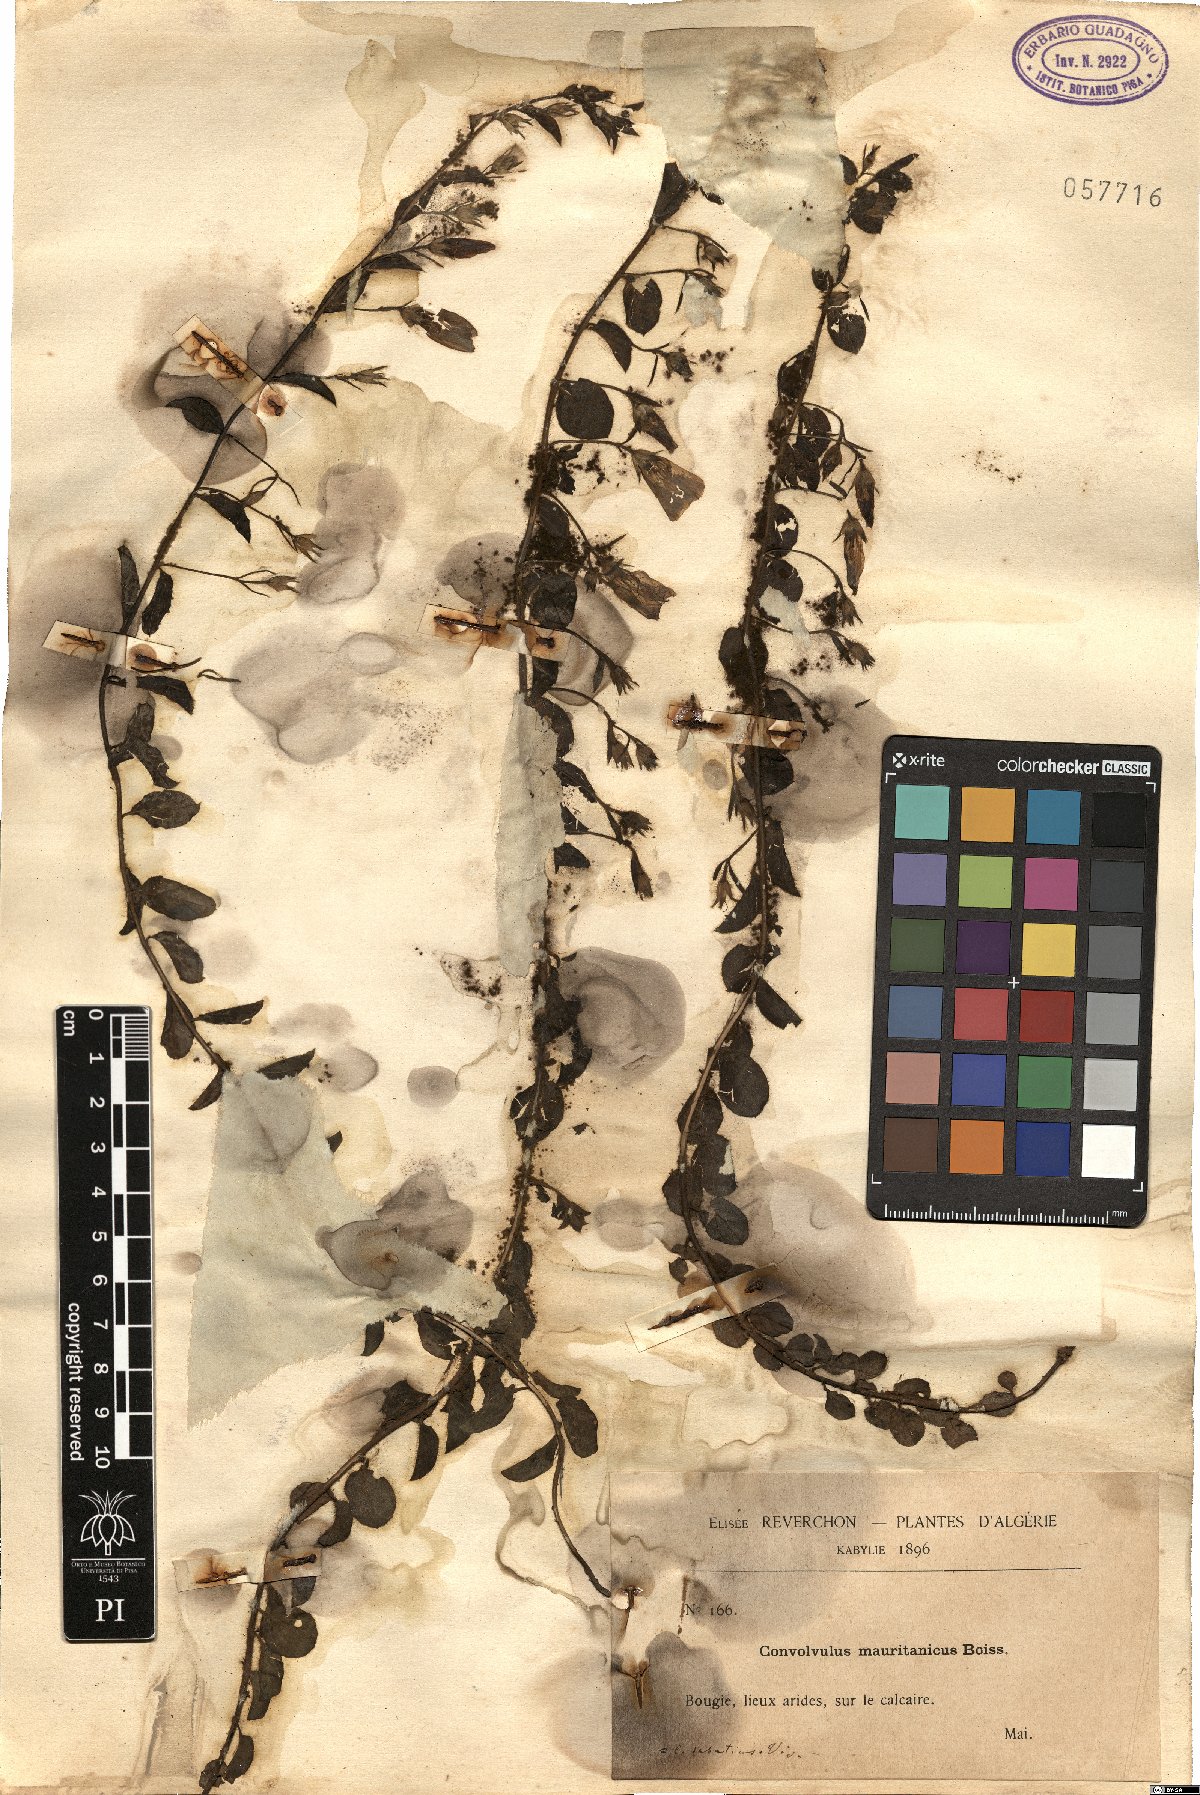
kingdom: Plantae
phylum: Tracheophyta
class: Magnoliopsida
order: Solanales
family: Convolvulaceae
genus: Convolvulus
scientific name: Convolvulus sabatius
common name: Ground blue-convolvulus
